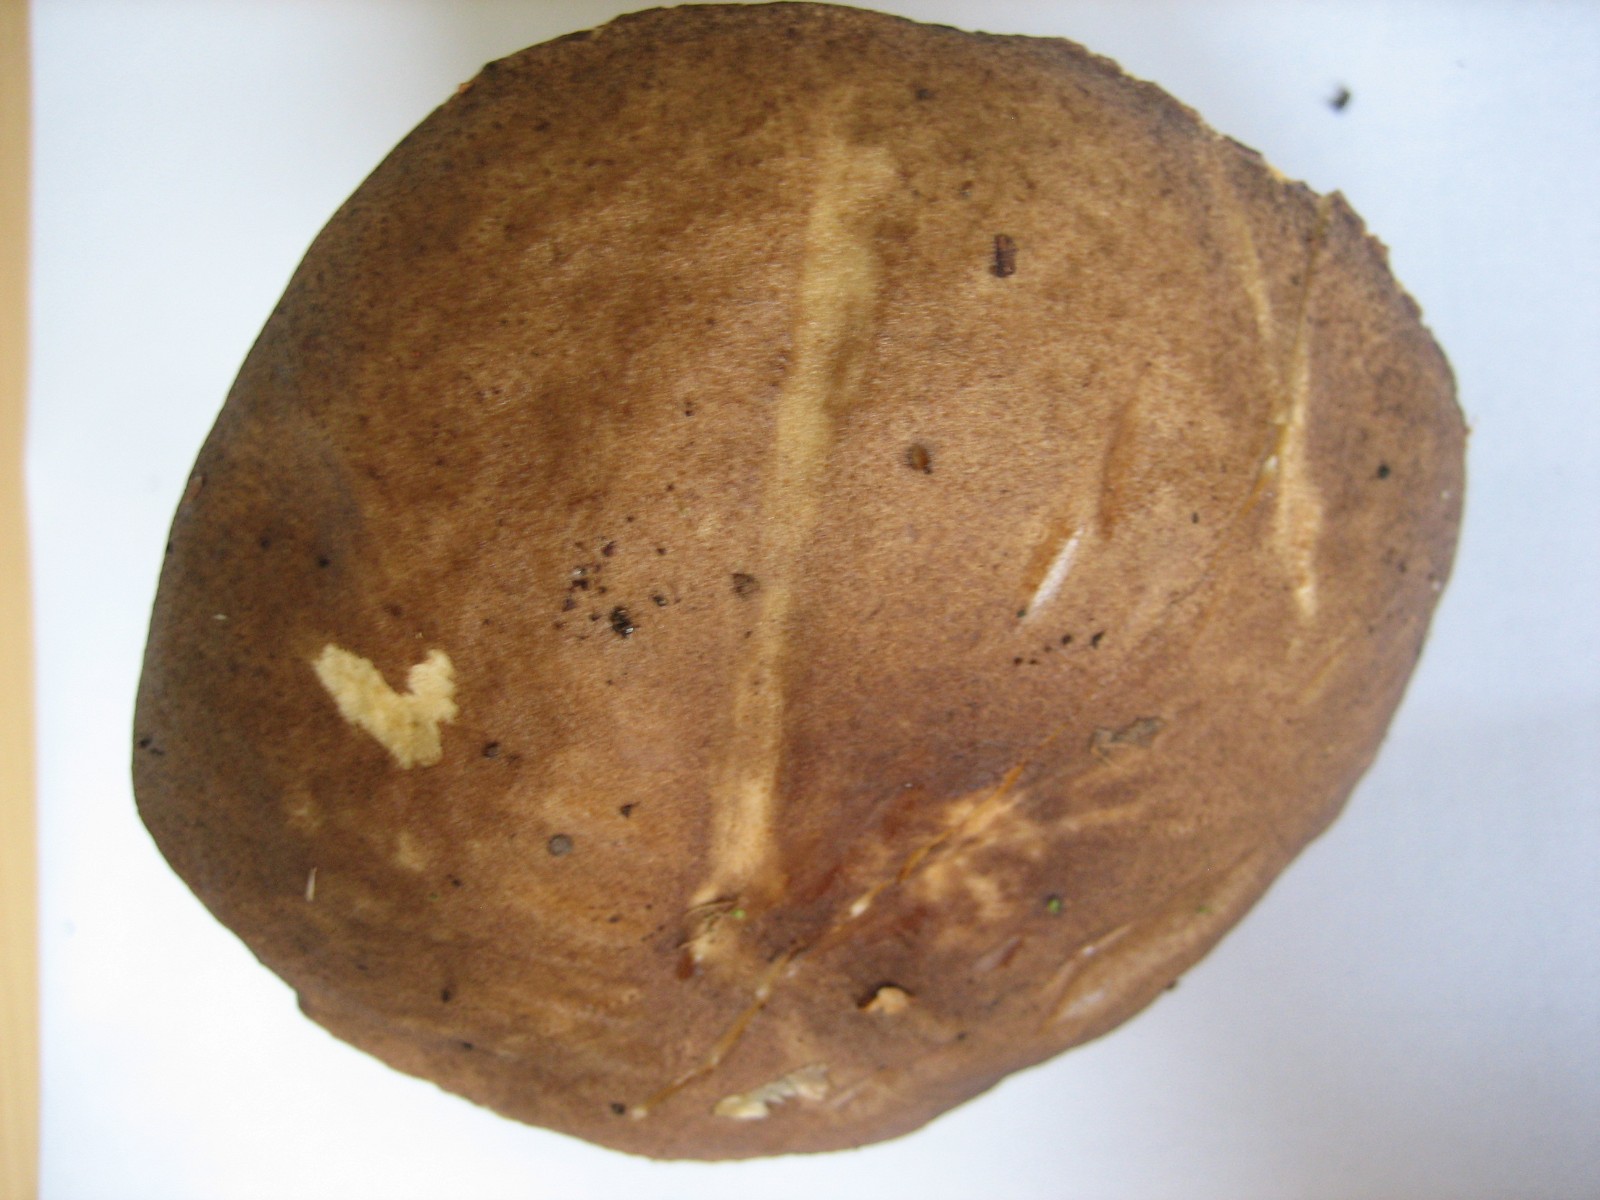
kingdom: Fungi
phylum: Basidiomycota
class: Agaricomycetes
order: Boletales
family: Boletaceae
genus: Leccinum
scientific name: Leccinum scabrum
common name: brun skælrørhat
